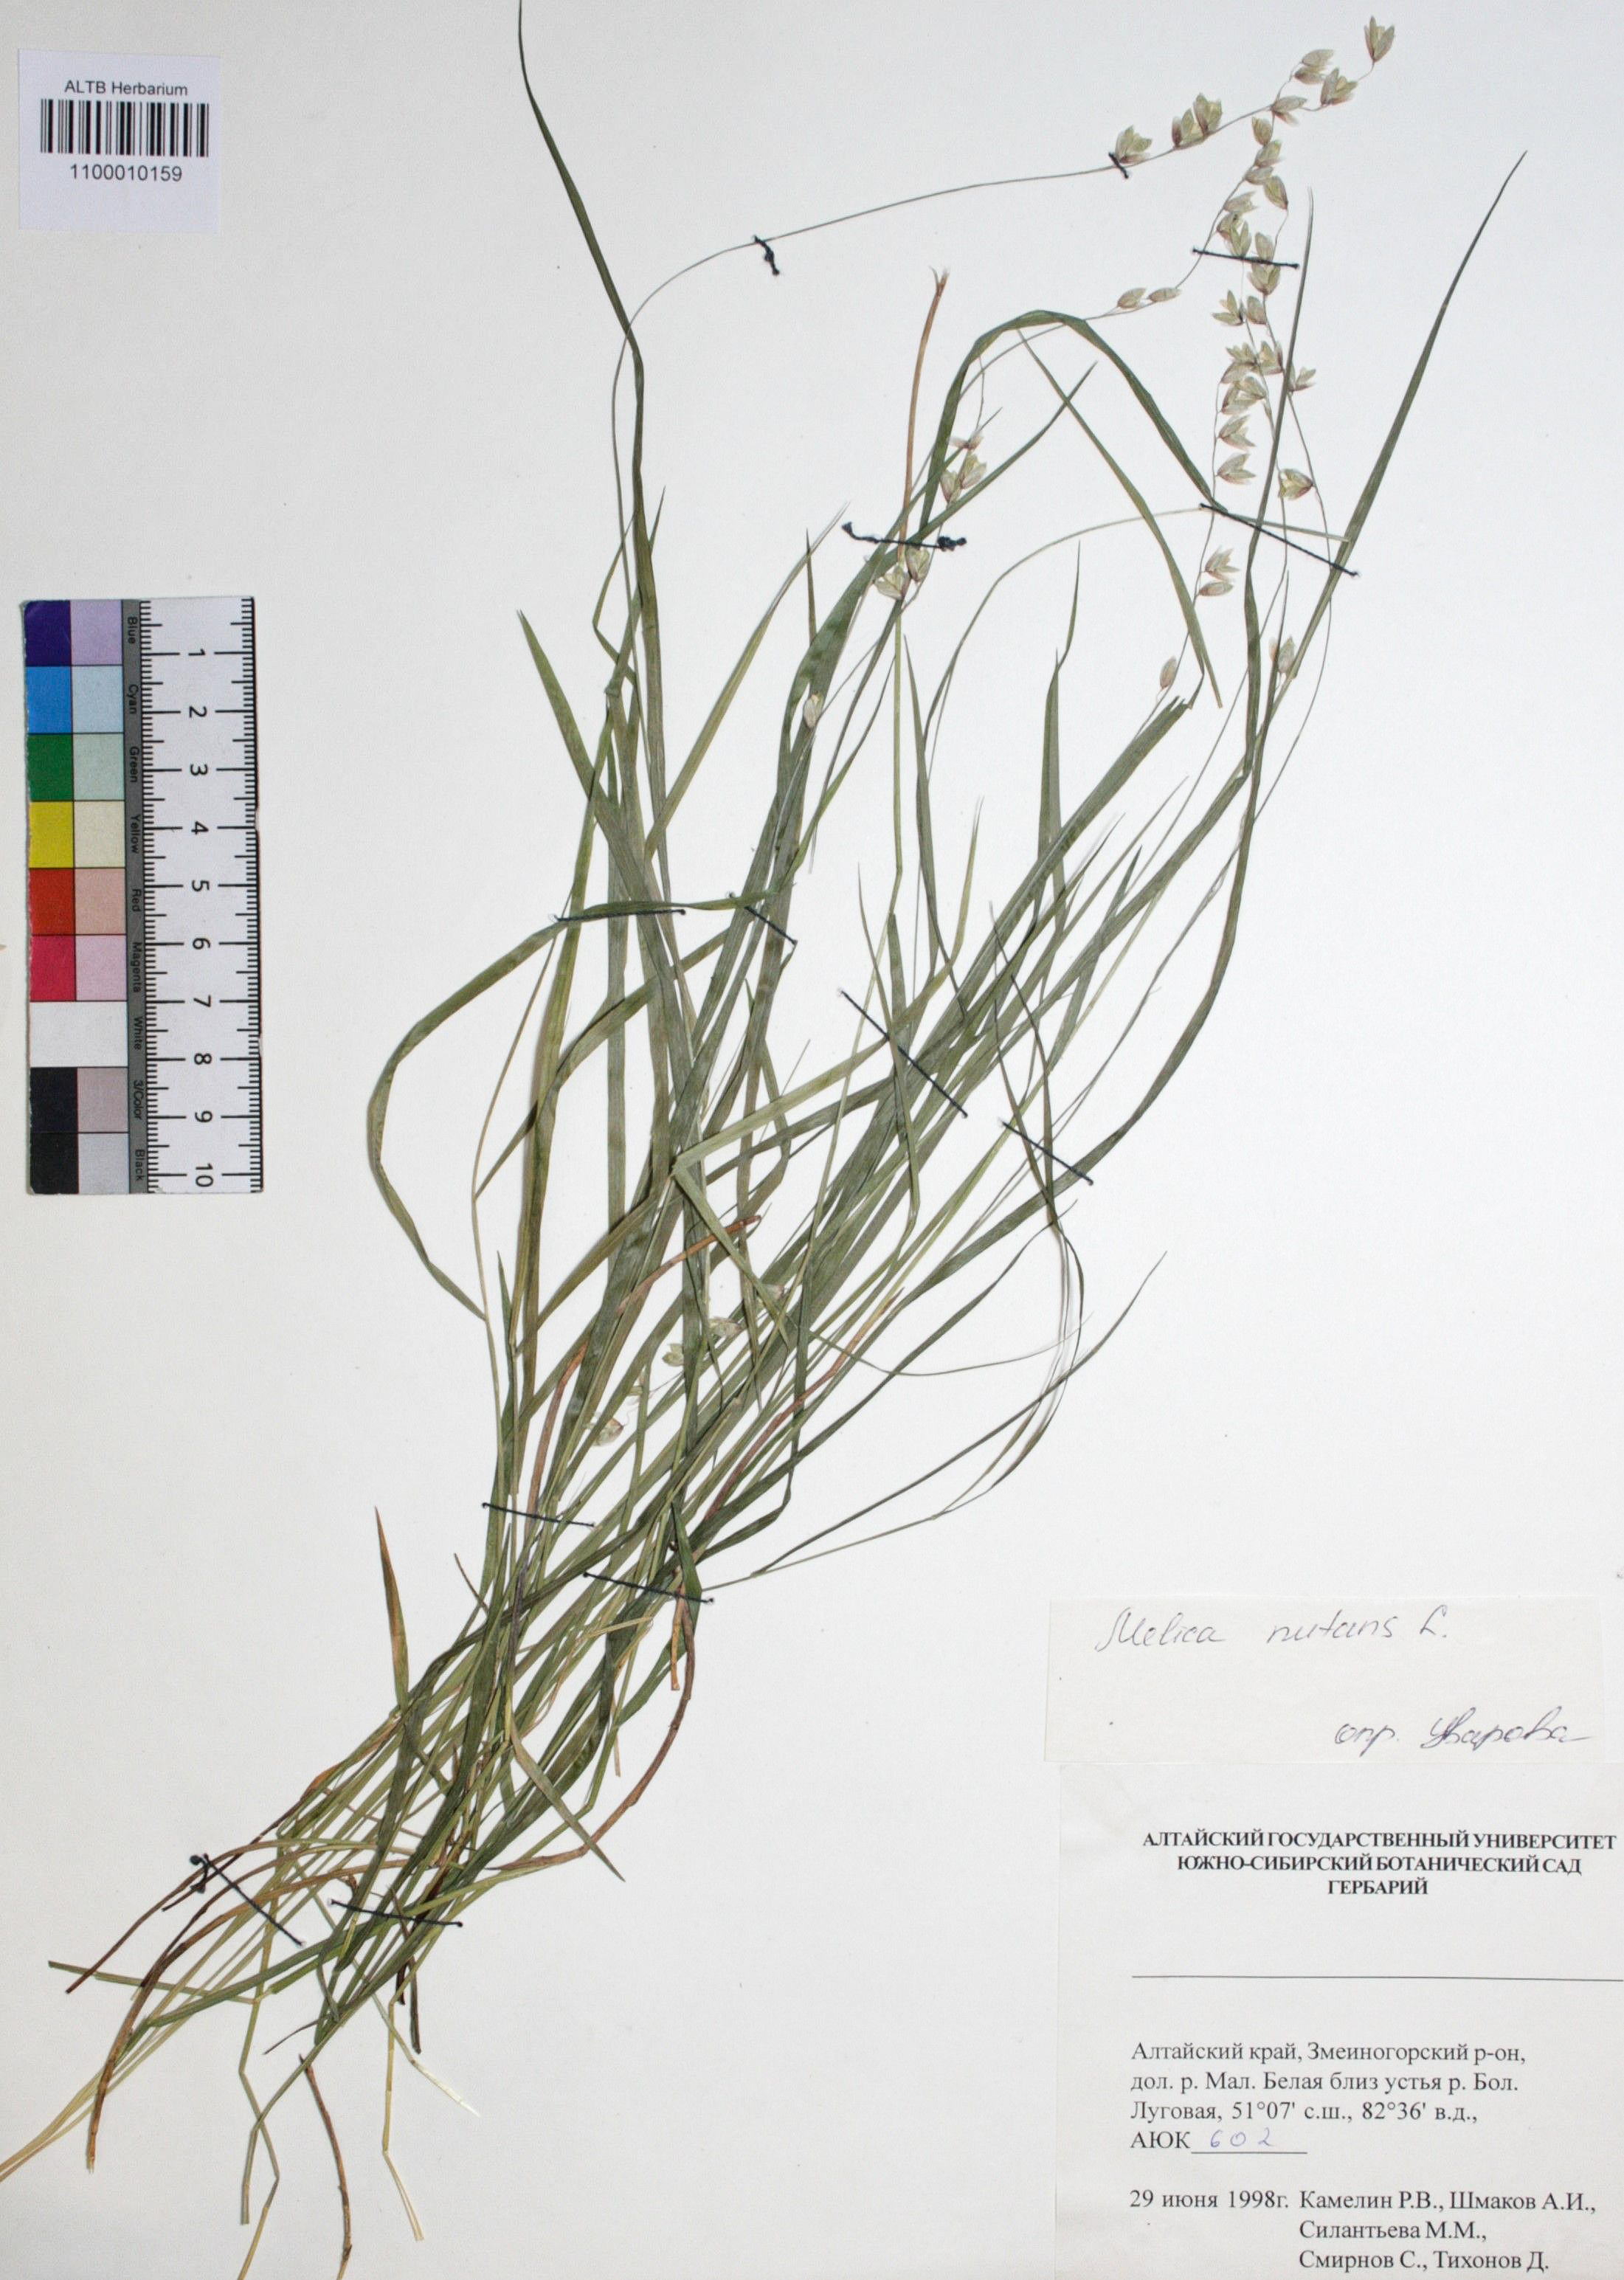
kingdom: Plantae
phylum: Tracheophyta
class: Liliopsida
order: Poales
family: Poaceae
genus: Melica
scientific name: Melica nutans
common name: Mountain melick
